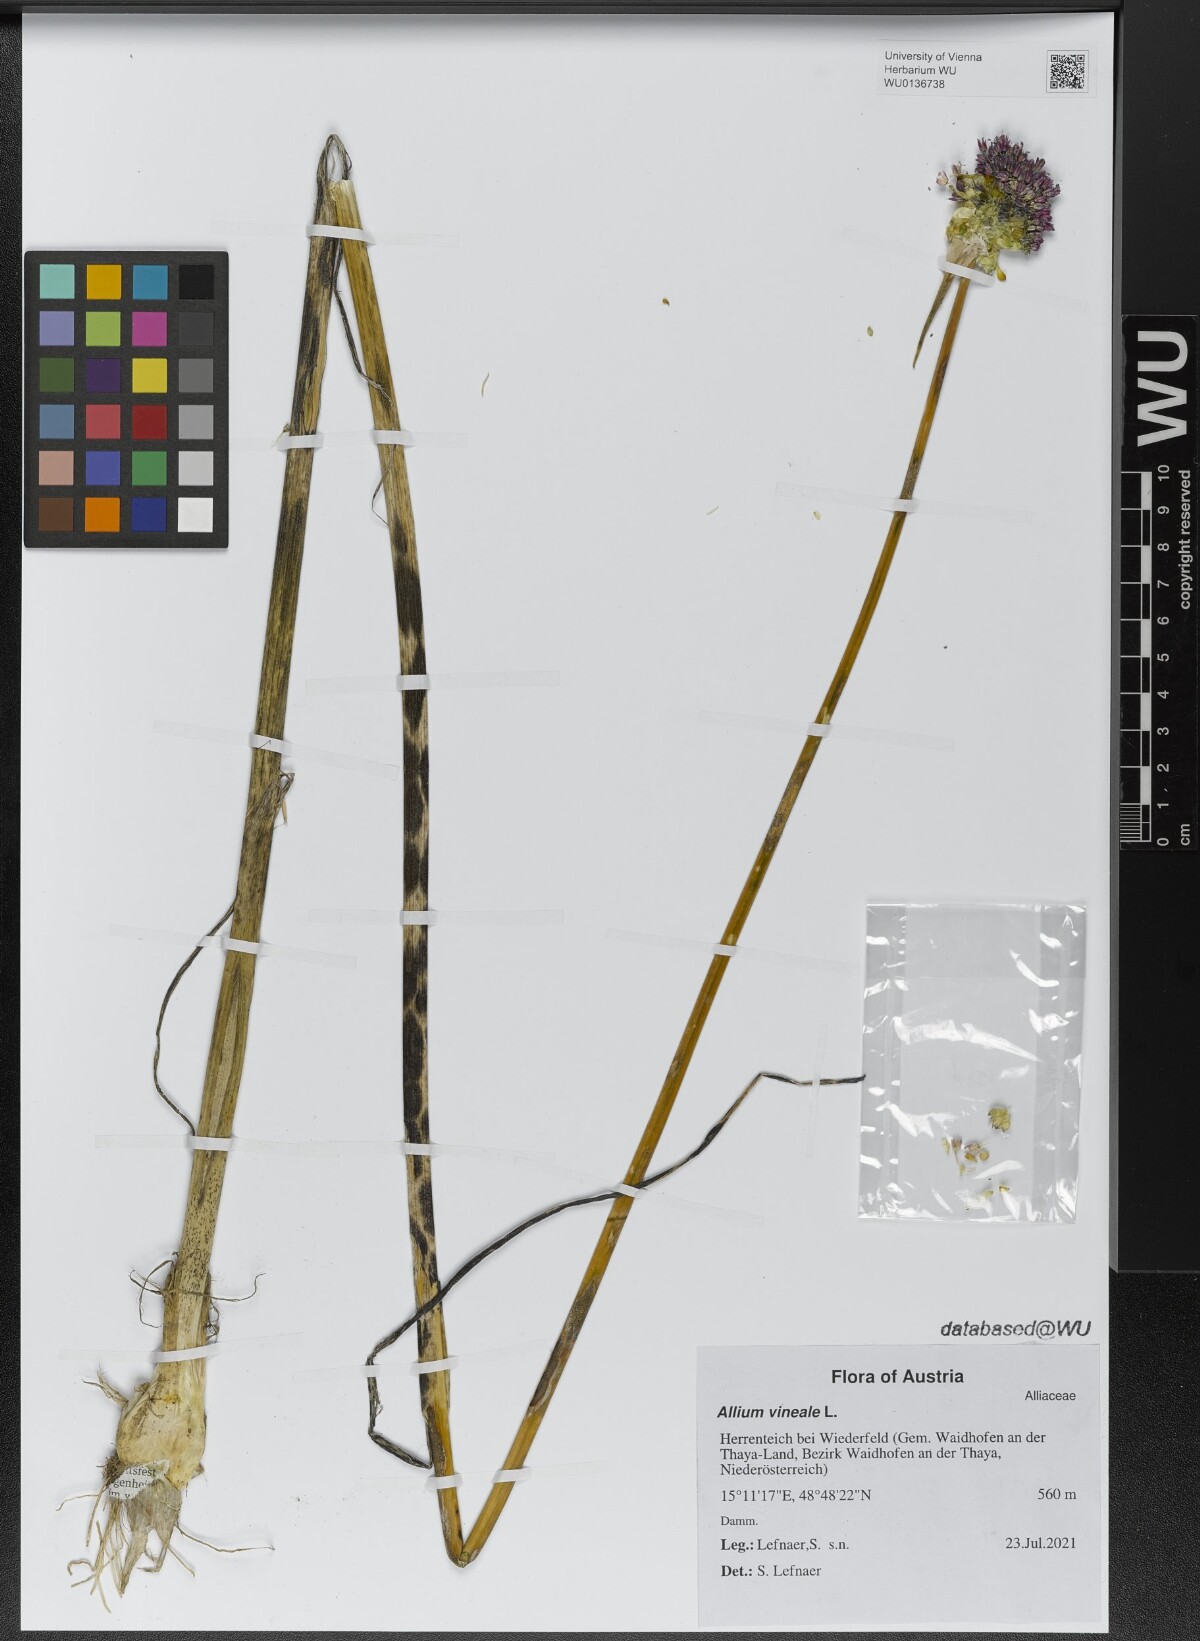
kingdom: Plantae
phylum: Tracheophyta
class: Liliopsida
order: Asparagales
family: Amaryllidaceae
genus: Allium
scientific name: Allium vineale
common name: Crow garlic
